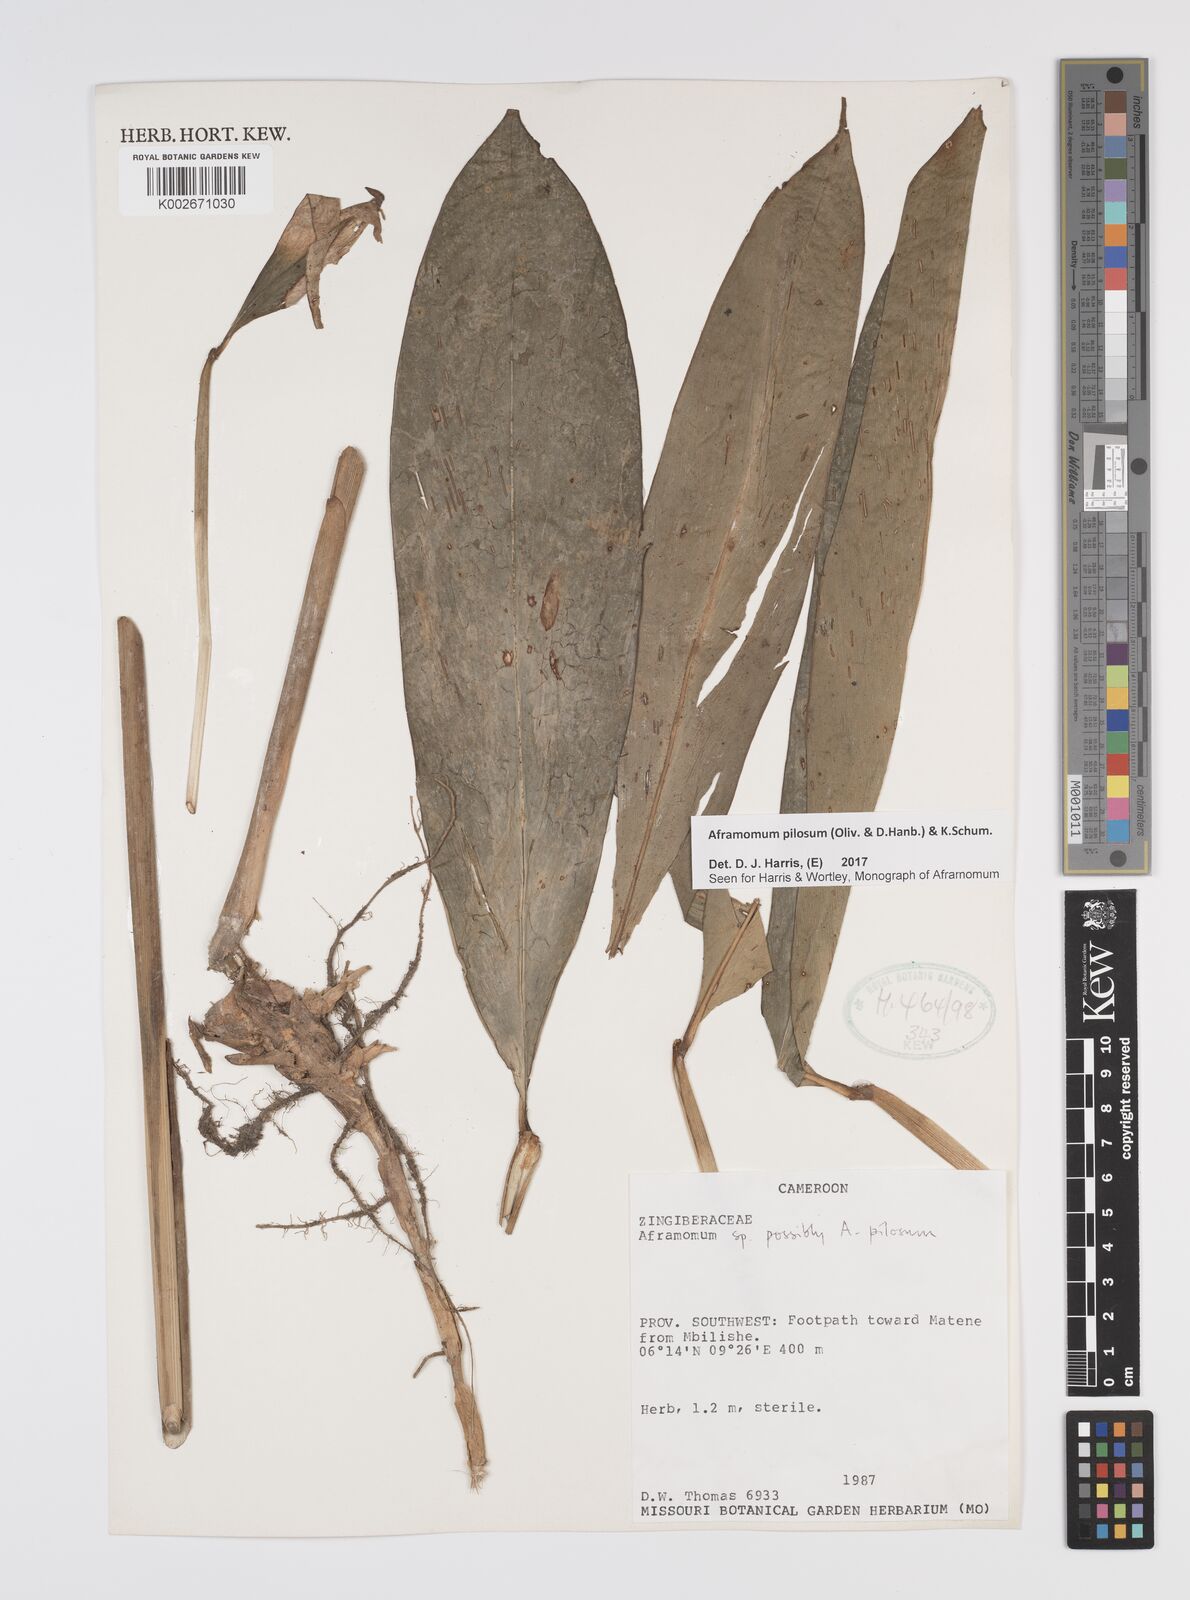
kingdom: Plantae
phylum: Tracheophyta
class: Liliopsida
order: Zingiberales
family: Zingiberaceae
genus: Aframomum
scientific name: Aframomum pilosum
